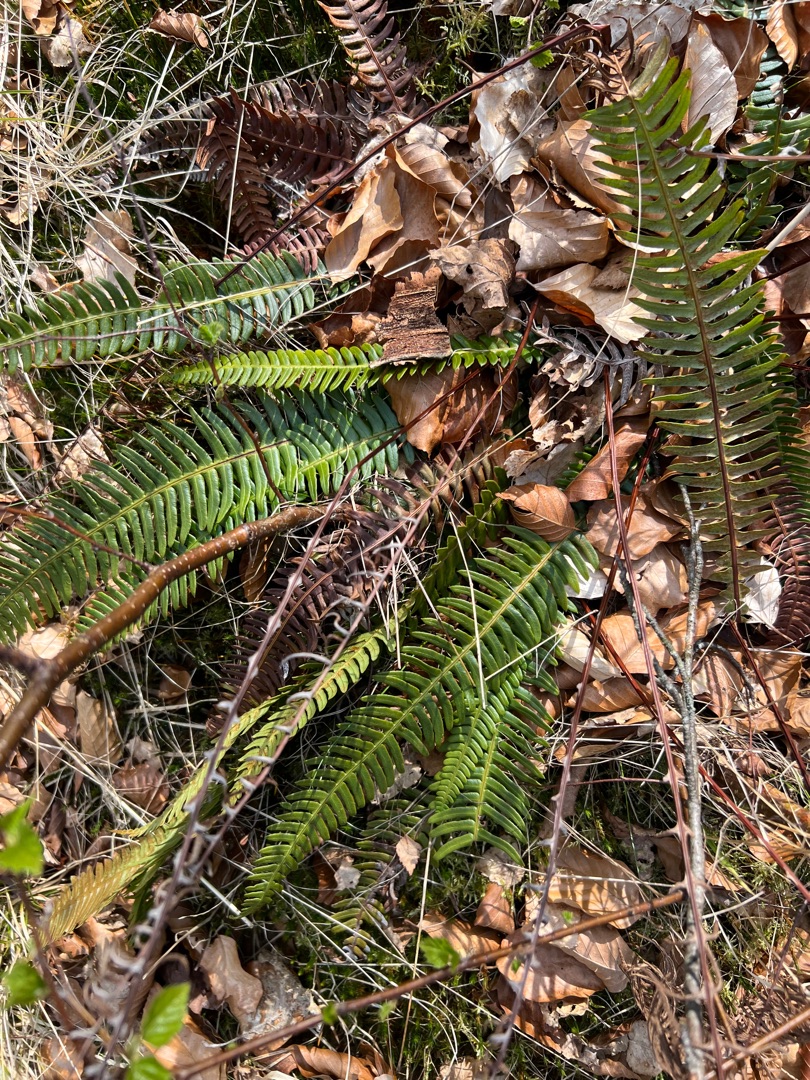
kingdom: Plantae
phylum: Tracheophyta
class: Polypodiopsida
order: Polypodiales
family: Blechnaceae
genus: Struthiopteris
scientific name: Struthiopteris spicant
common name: Kambregne
